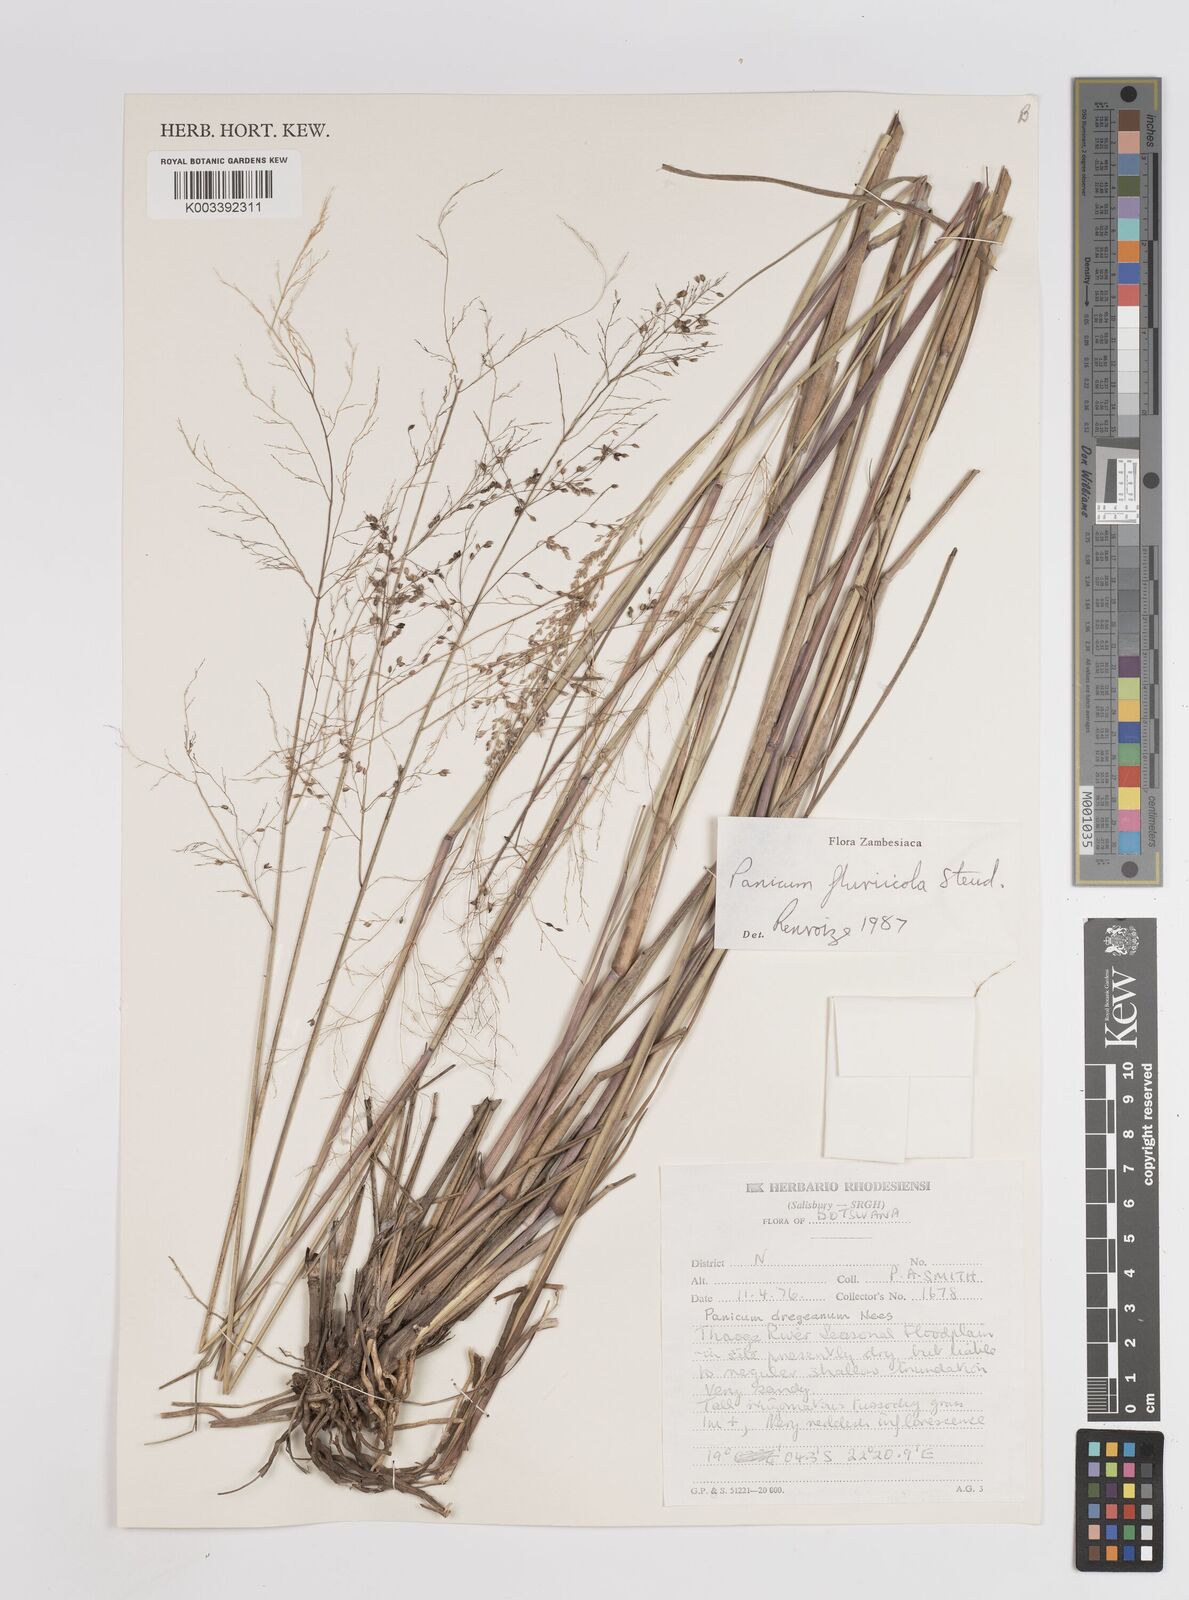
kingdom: Plantae
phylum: Tracheophyta
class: Liliopsida
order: Poales
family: Poaceae
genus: Panicum
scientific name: Panicum fluviicola
